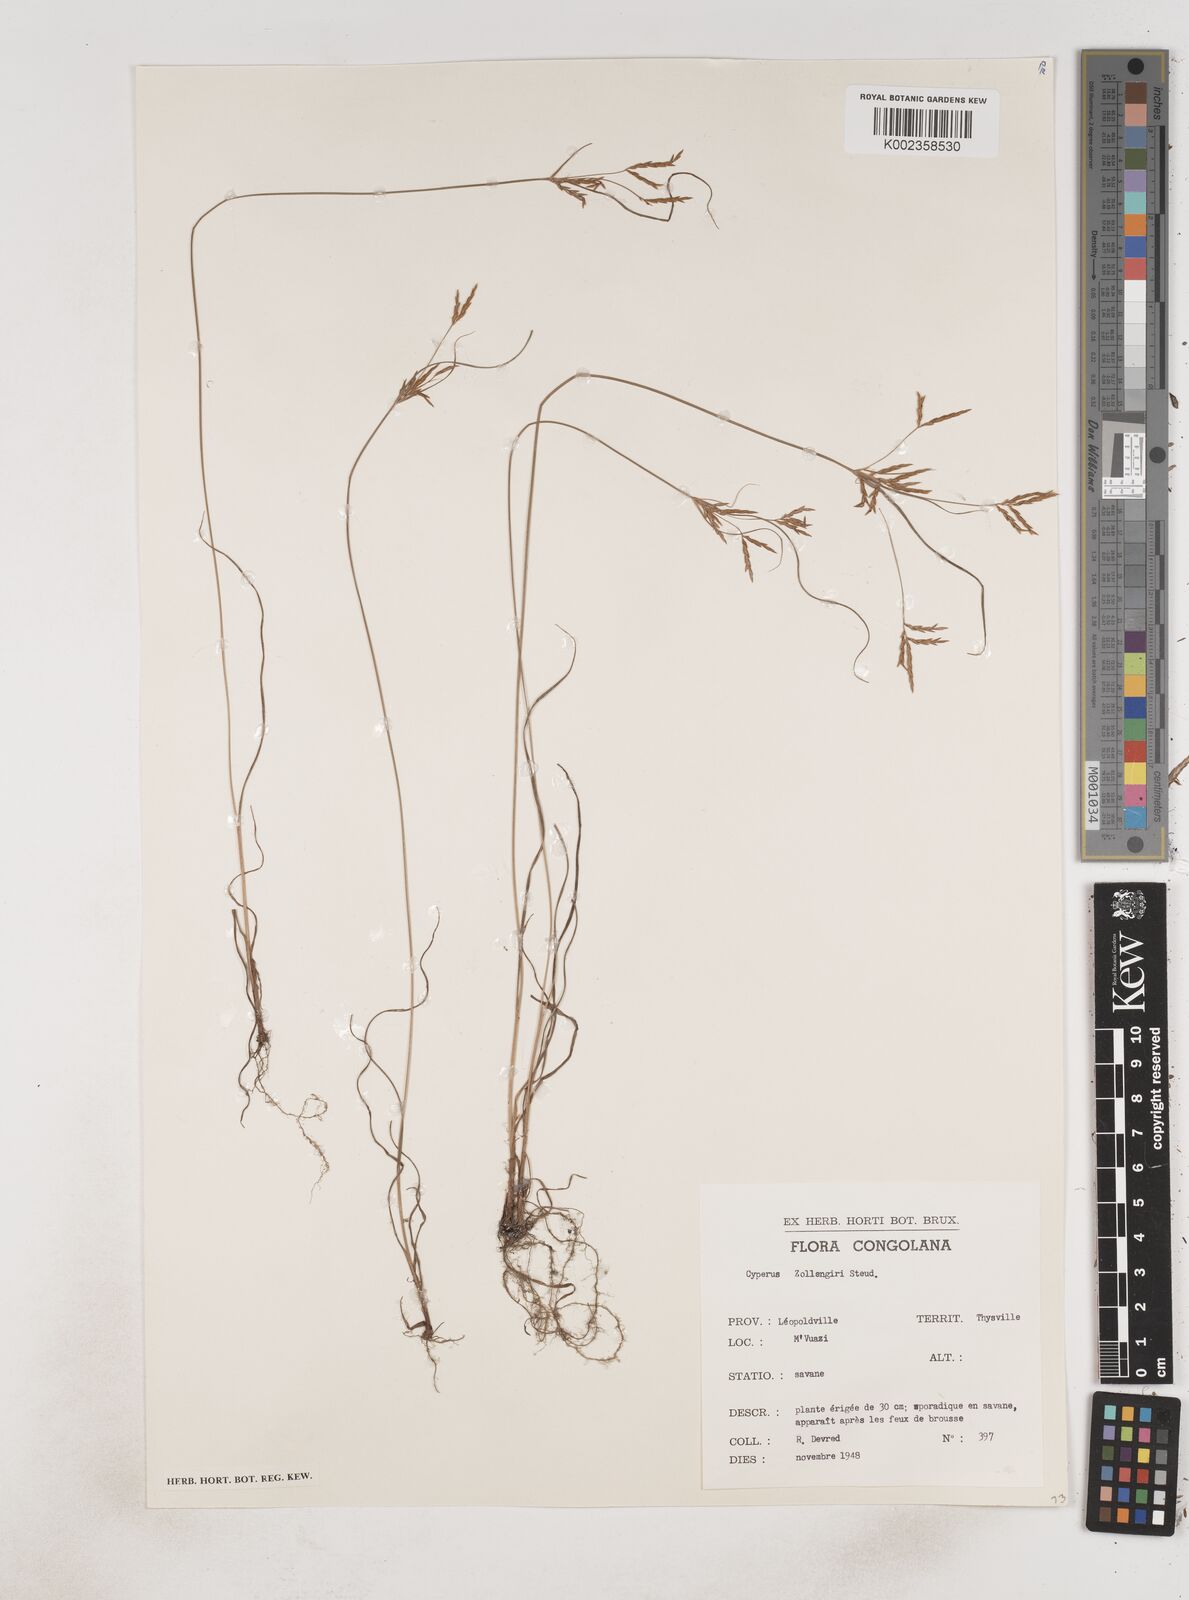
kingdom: Plantae
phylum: Tracheophyta
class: Liliopsida
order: Poales
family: Cyperaceae
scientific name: Cyperaceae
